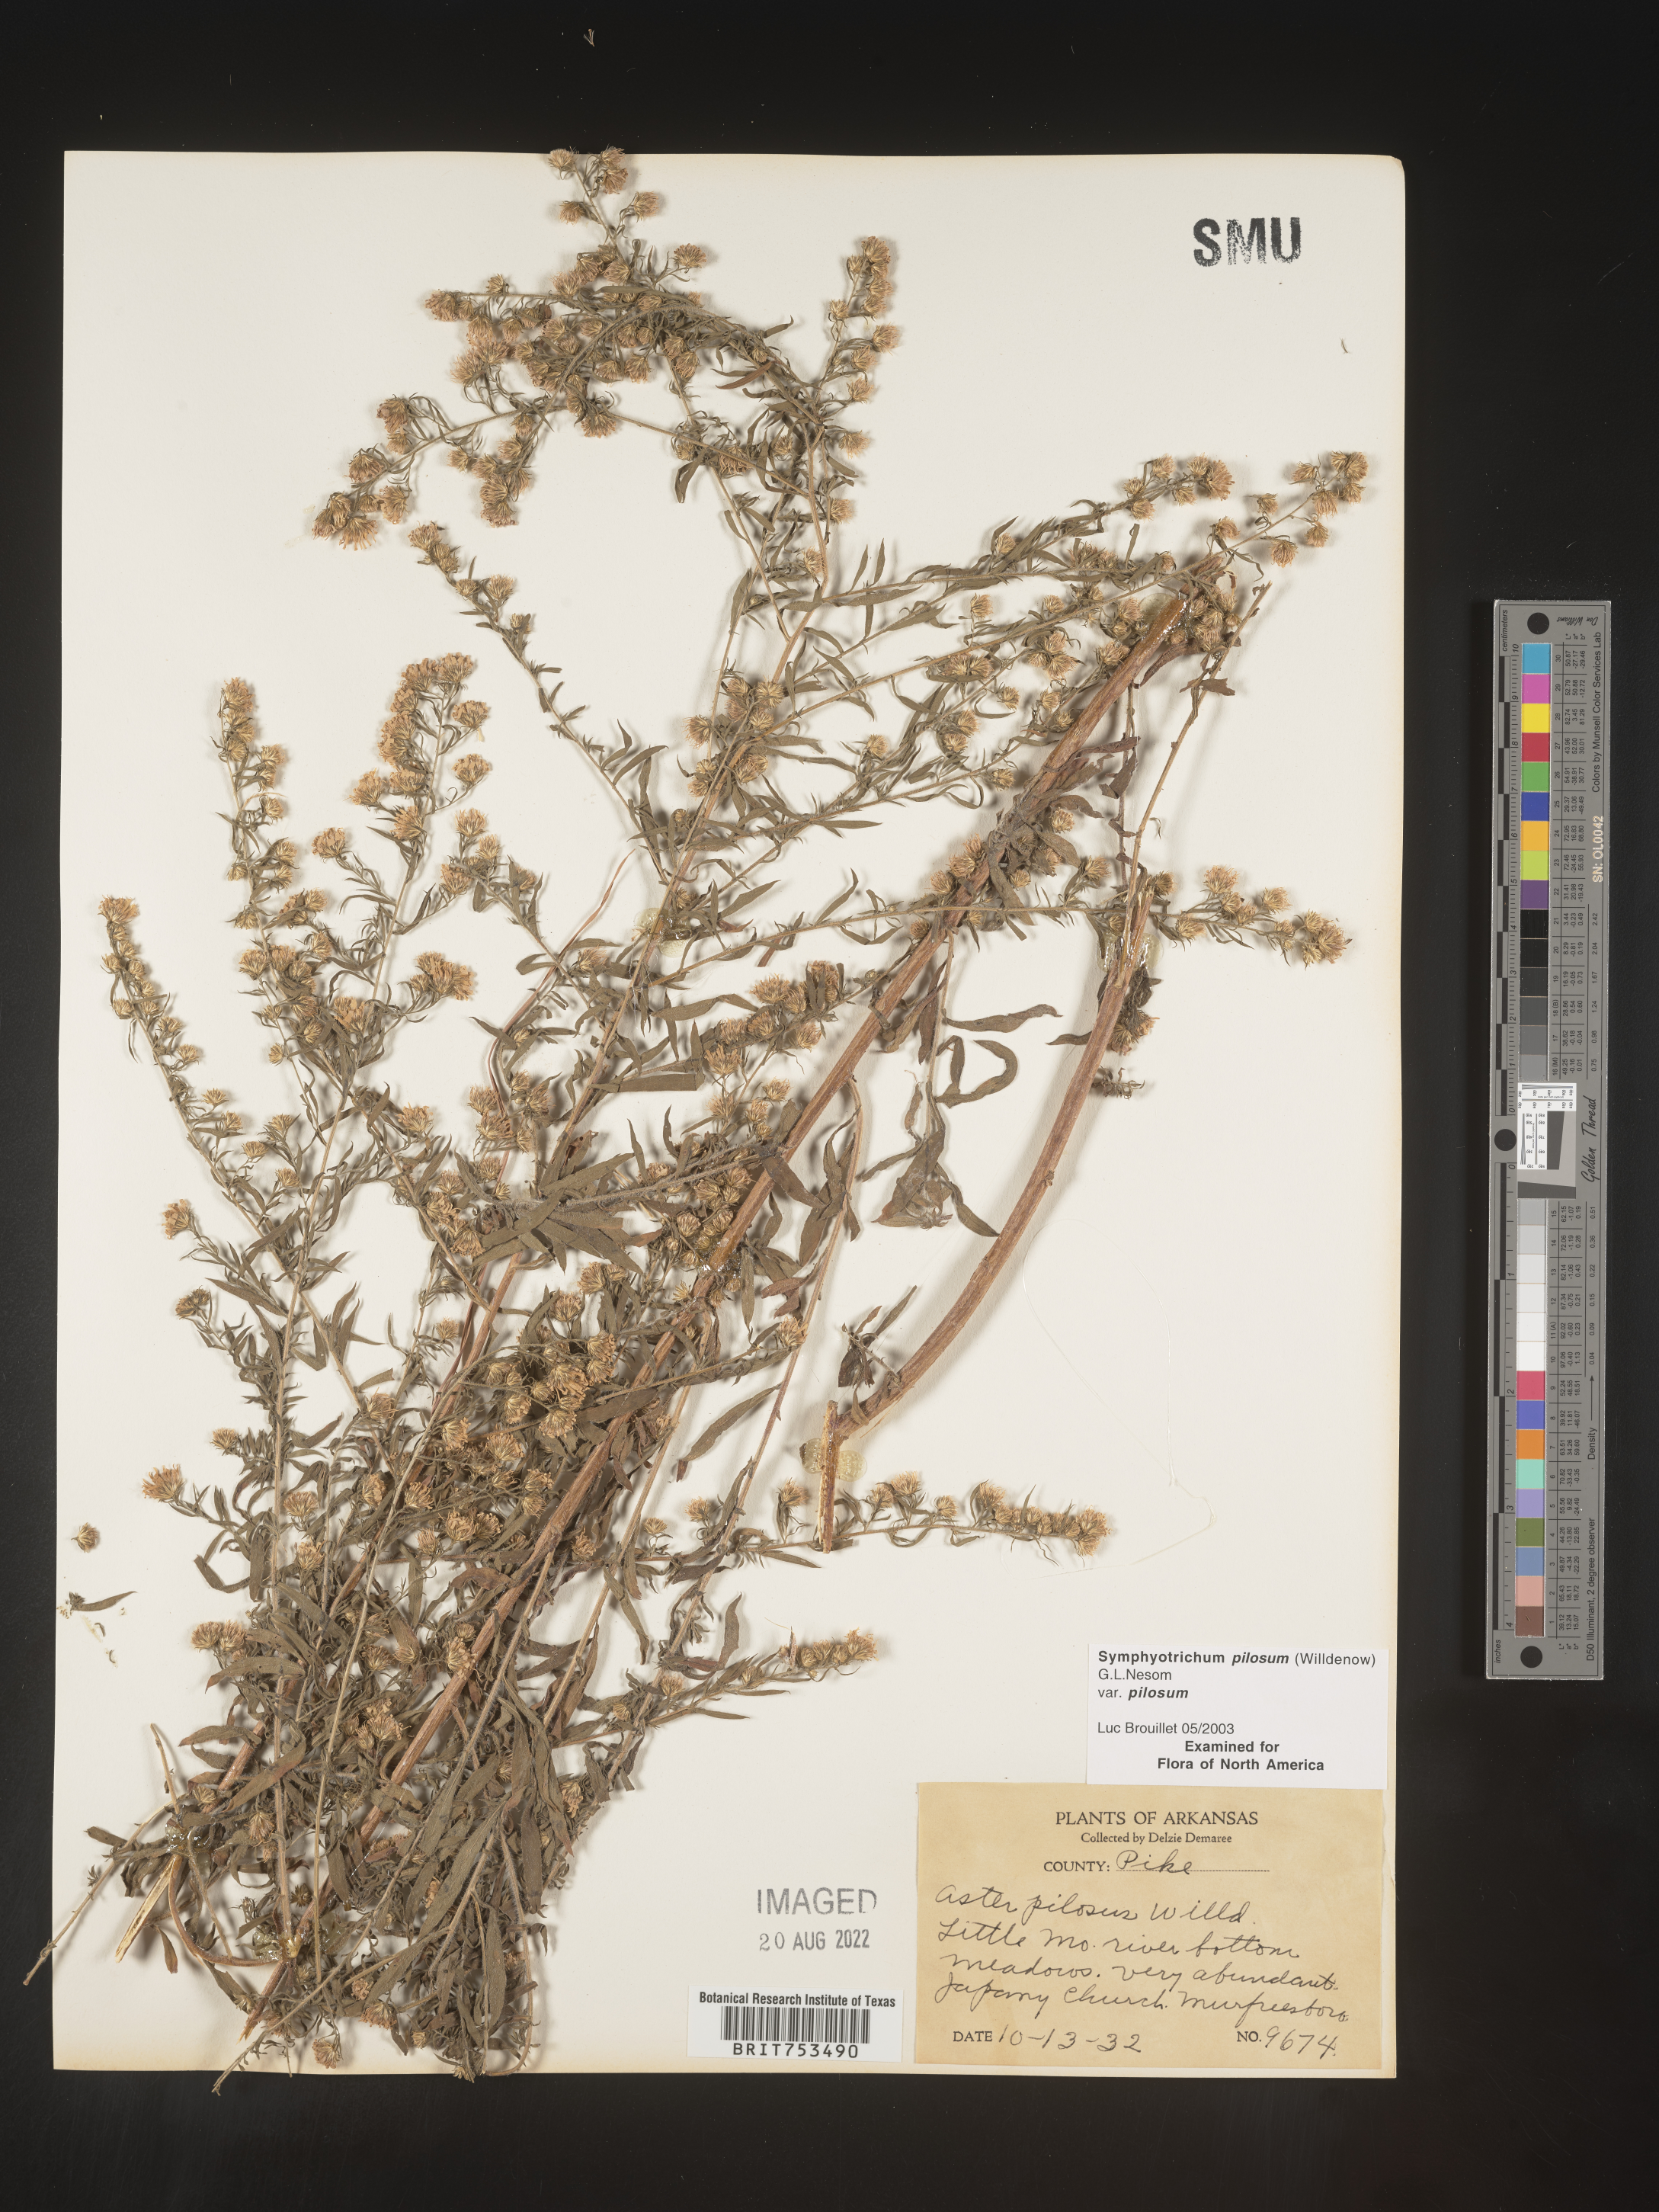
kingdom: Plantae
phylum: Tracheophyta
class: Magnoliopsida
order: Asterales
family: Asteraceae
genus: Symphyotrichum
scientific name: Symphyotrichum pilosum
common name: Awl aster
